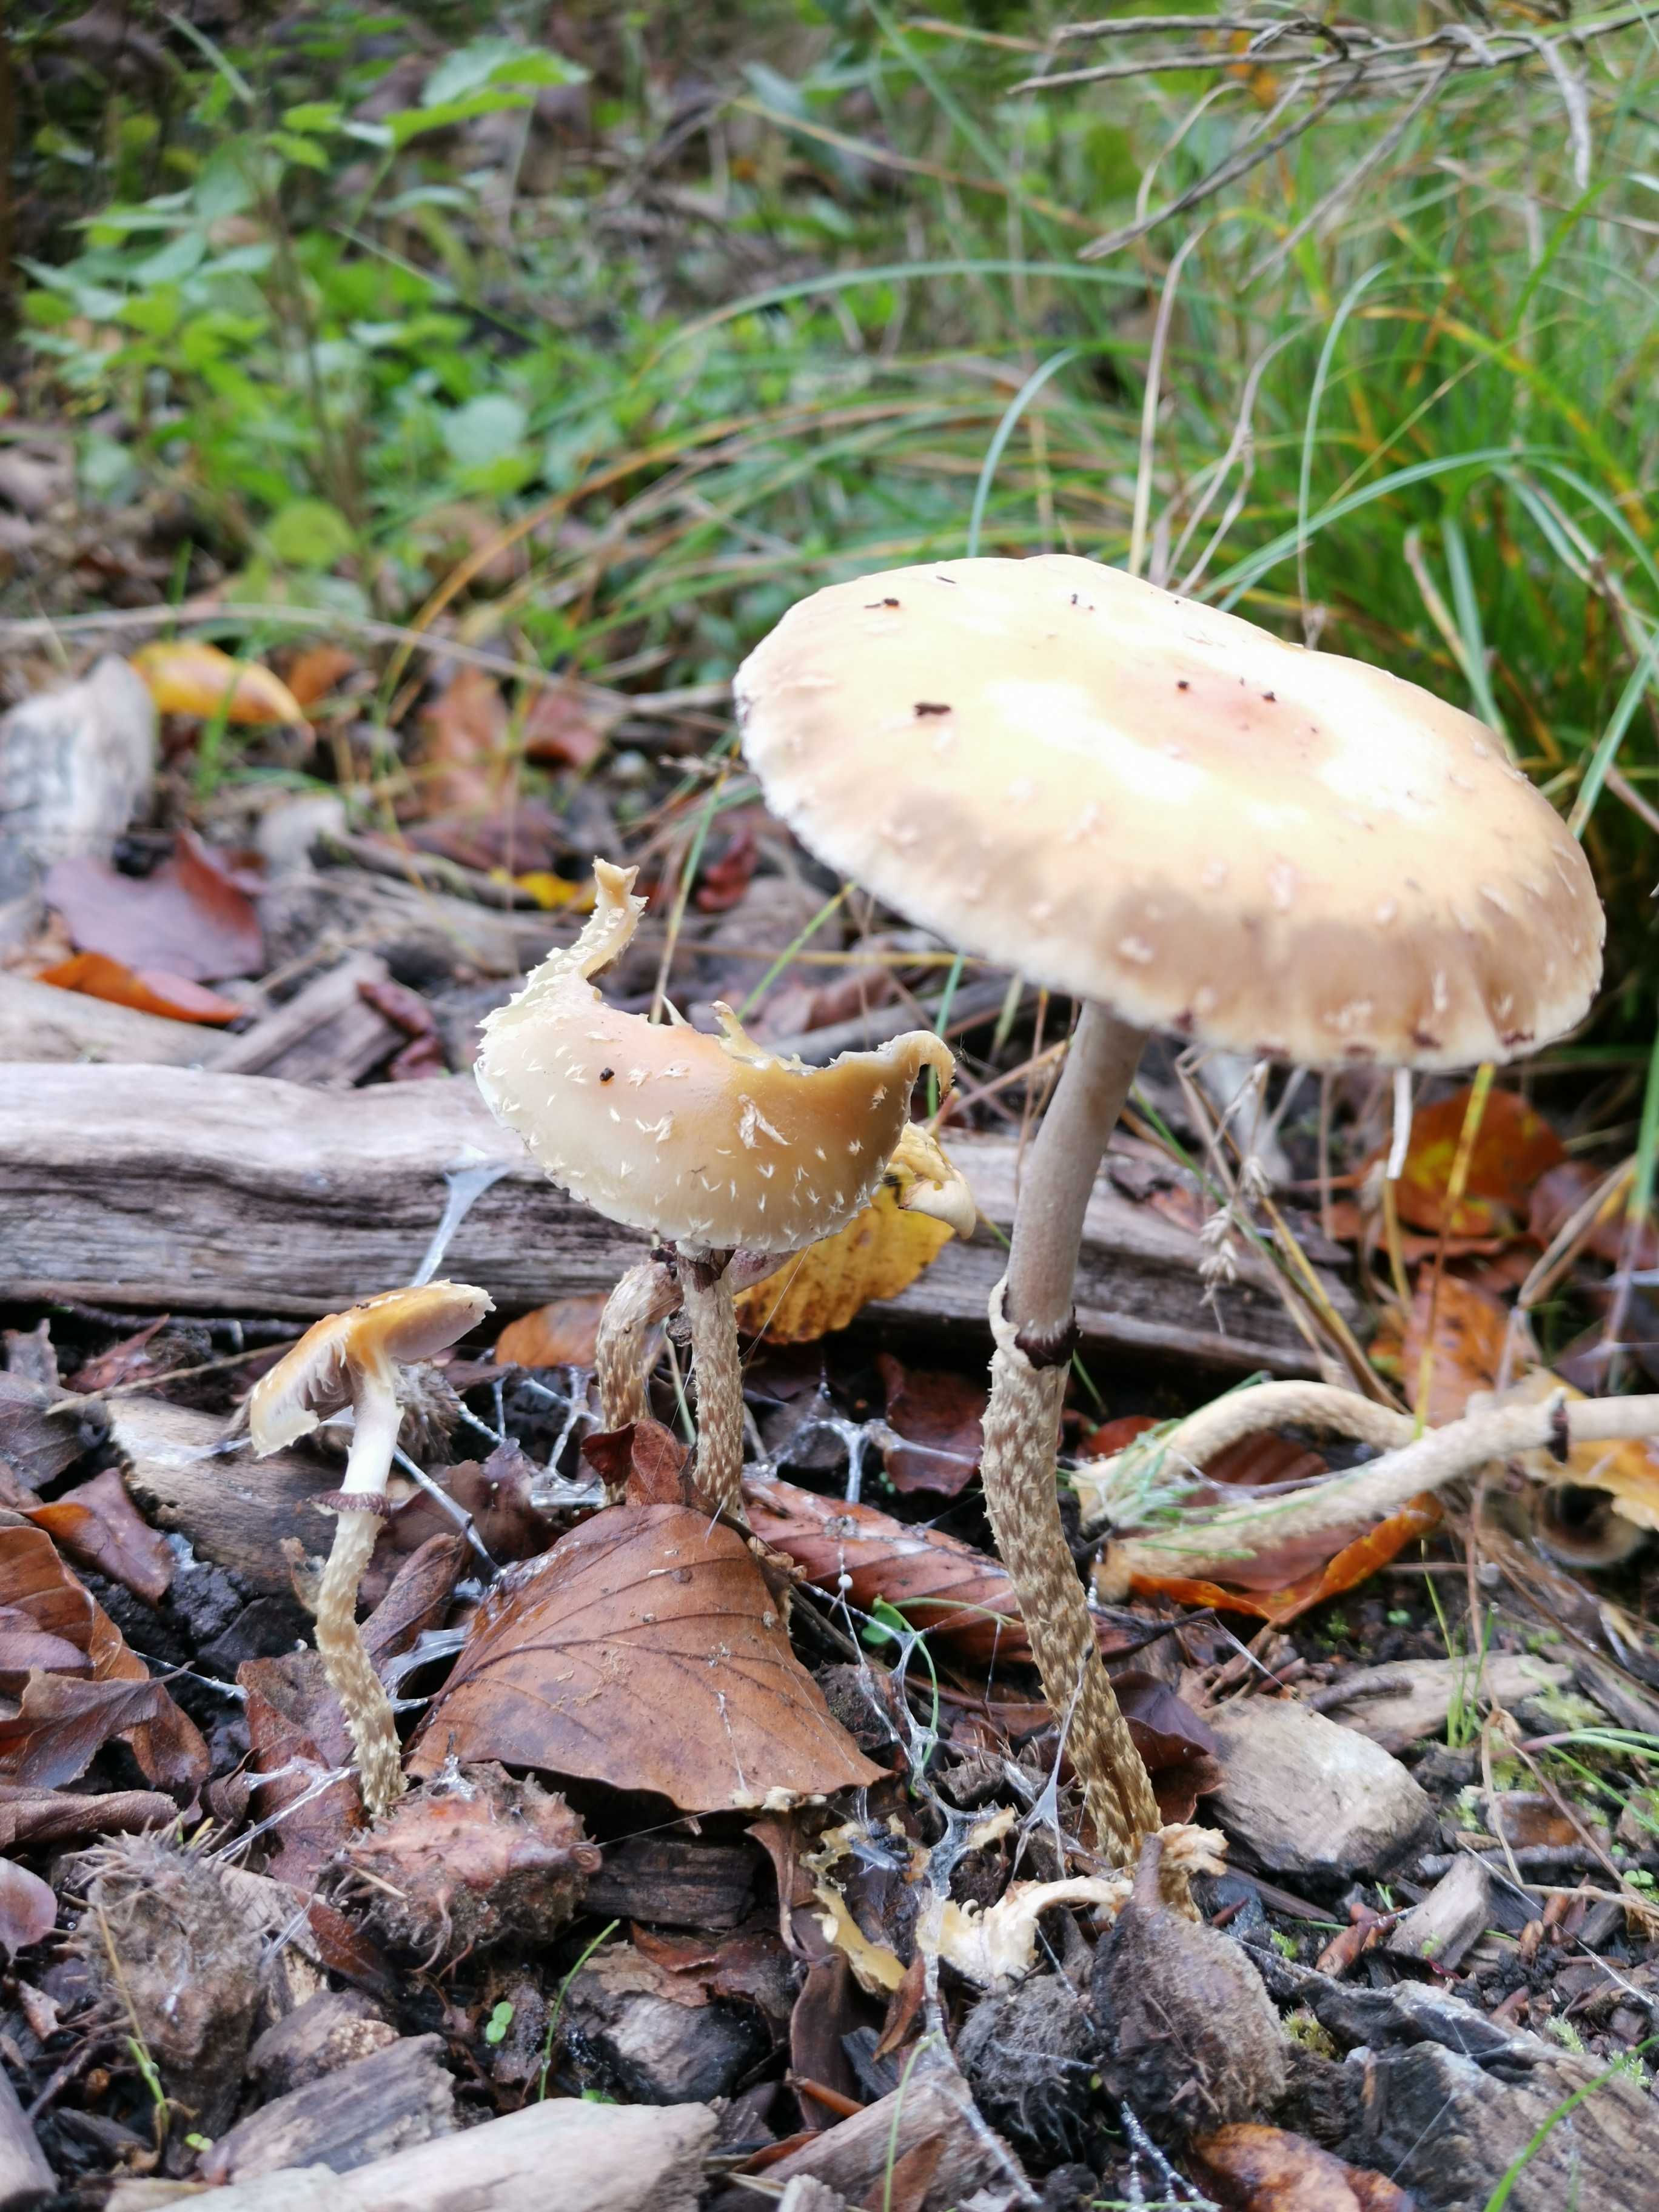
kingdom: Fungi
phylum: Basidiomycota
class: Agaricomycetes
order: Agaricales
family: Strophariaceae
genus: Leratiomyces
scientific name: Leratiomyces squamosus
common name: skællet bredblad
